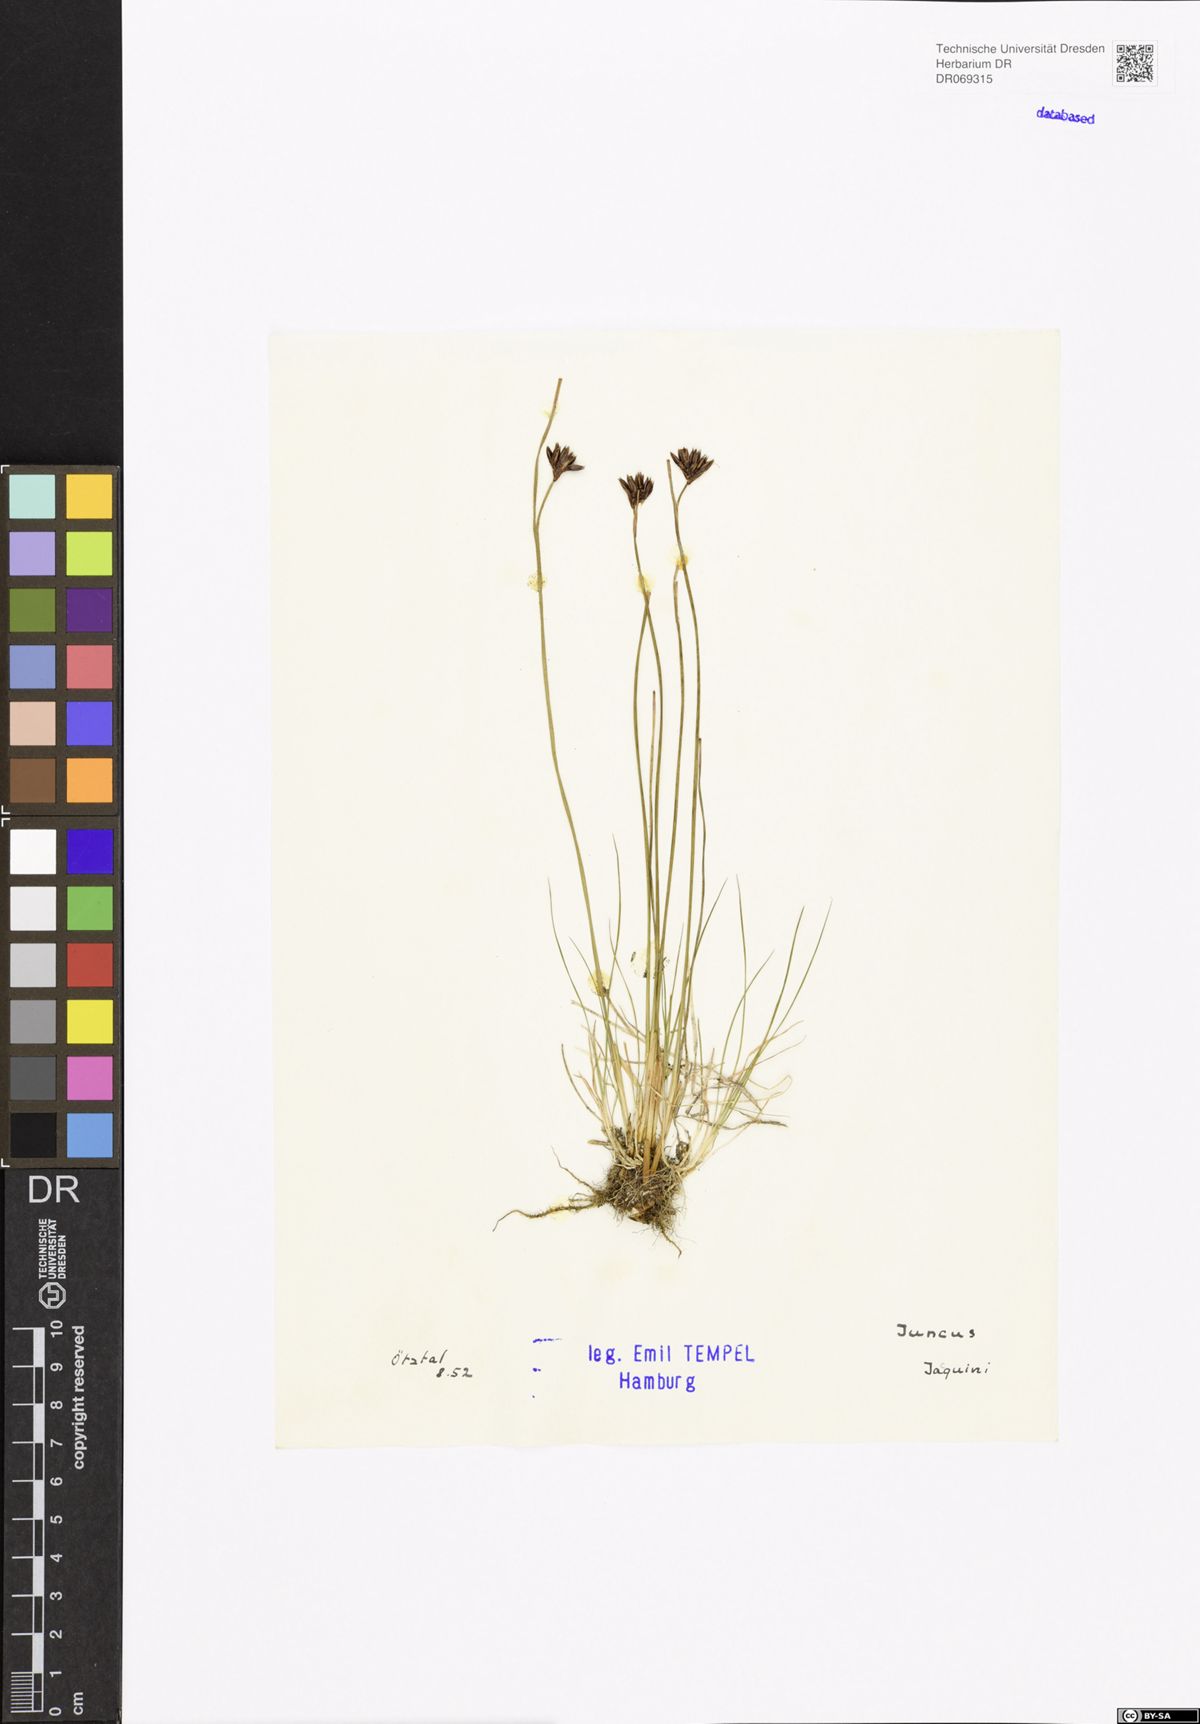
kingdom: Plantae
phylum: Tracheophyta
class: Liliopsida
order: Poales
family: Juncaceae
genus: Juncus
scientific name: Juncus jacquinii
